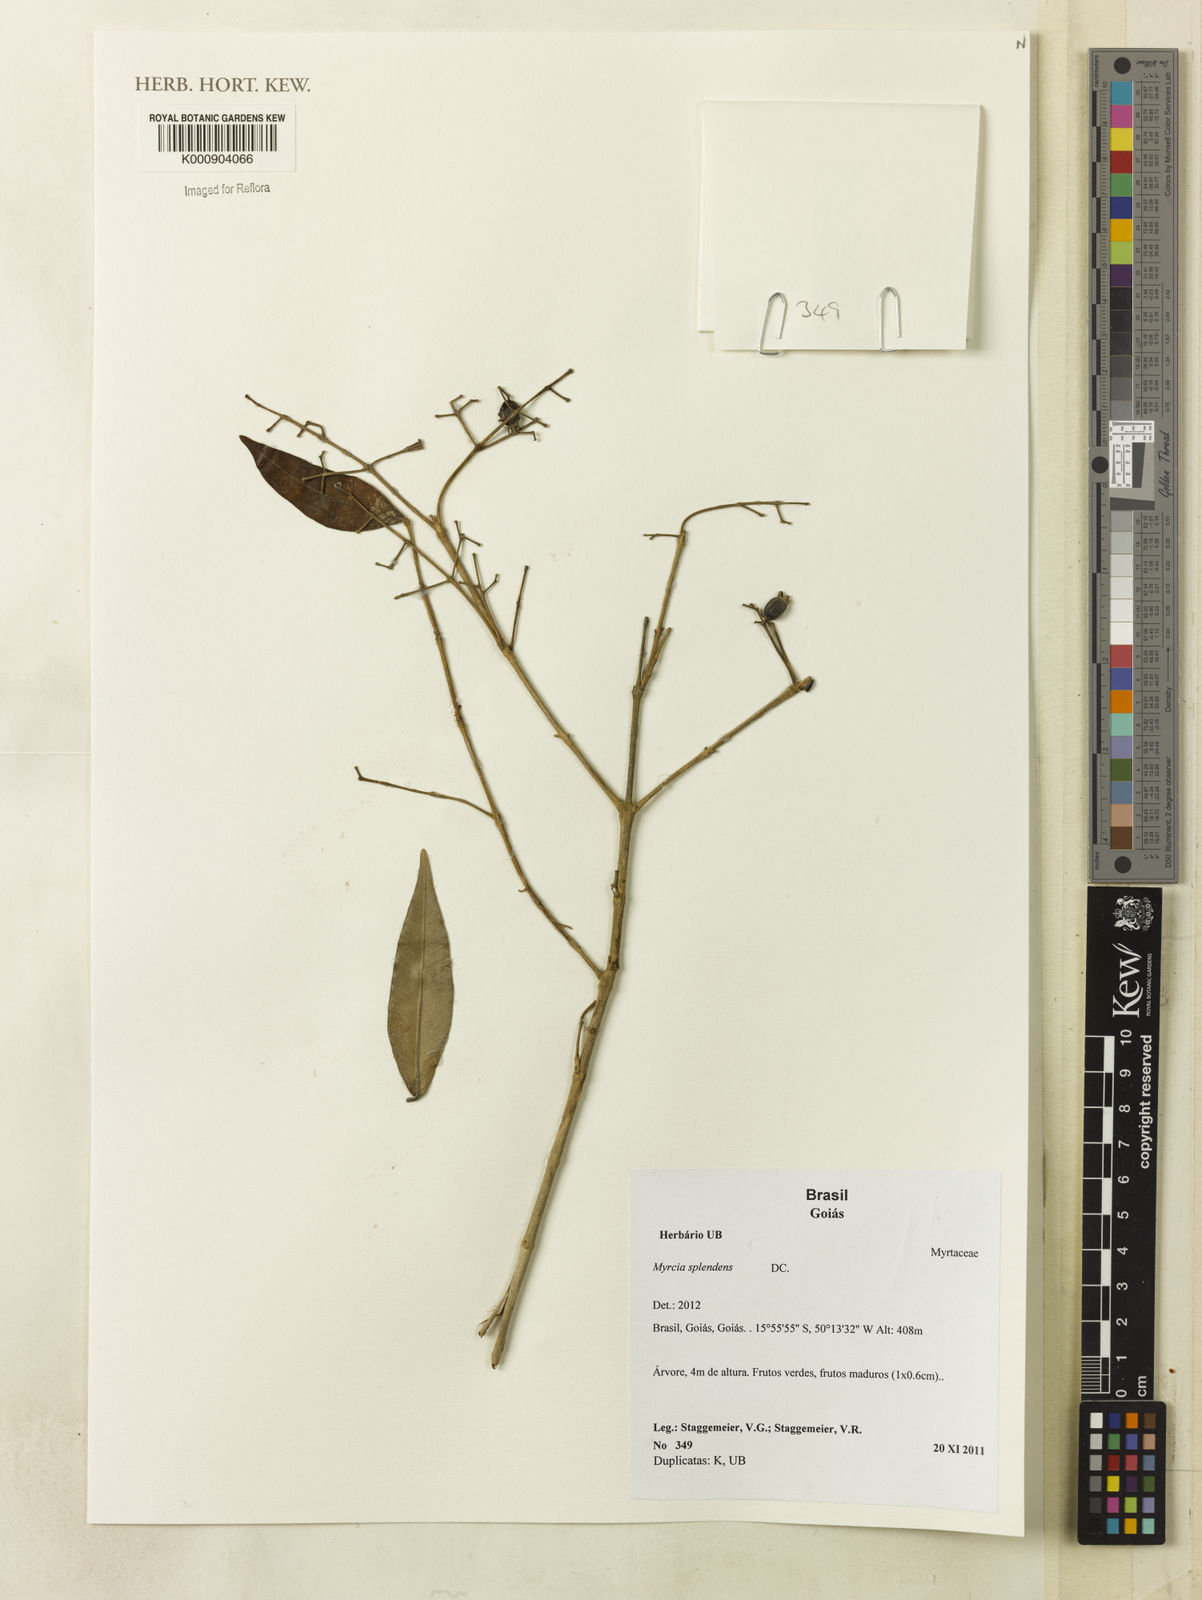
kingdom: Plantae
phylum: Tracheophyta
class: Magnoliopsida
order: Myrtales
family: Myrtaceae
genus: Myrcia
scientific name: Myrcia splendens
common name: Surinam cherry
